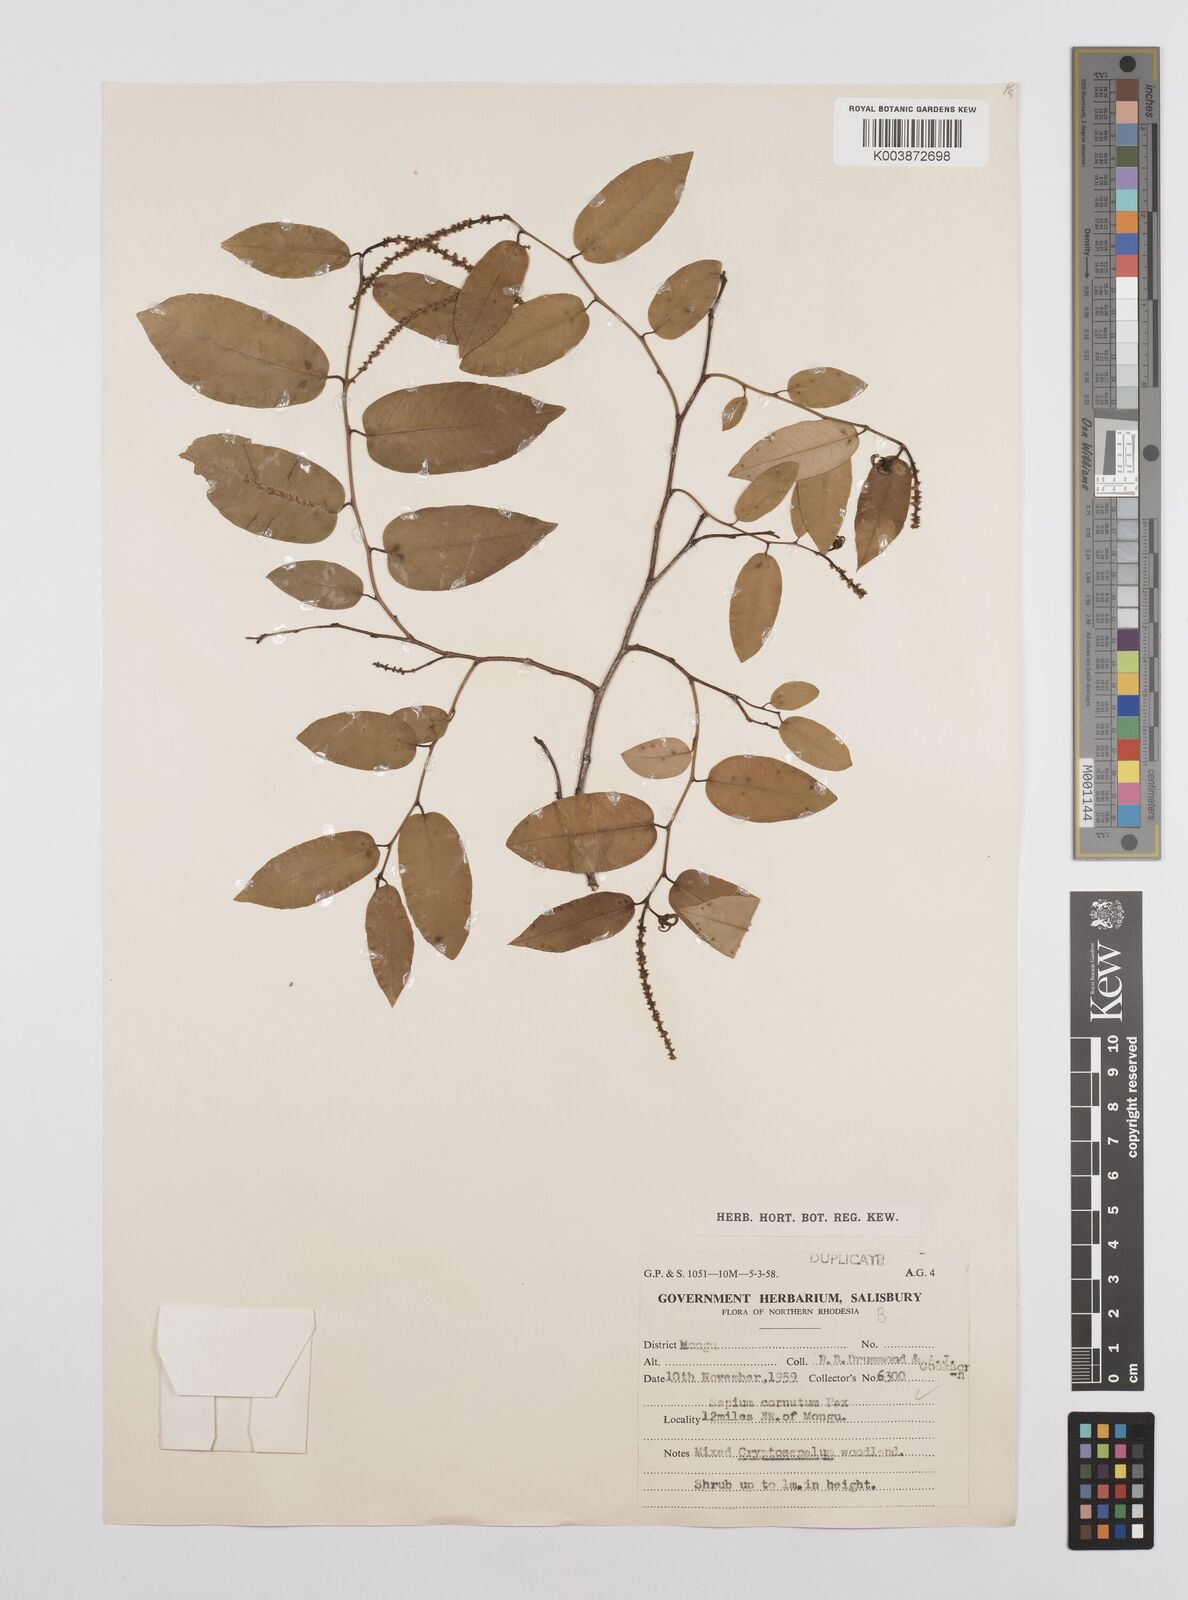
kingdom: Plantae
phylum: Tracheophyta
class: Magnoliopsida
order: Malpighiales
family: Euphorbiaceae
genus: Sclerocroton
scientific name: Sclerocroton cornutus
